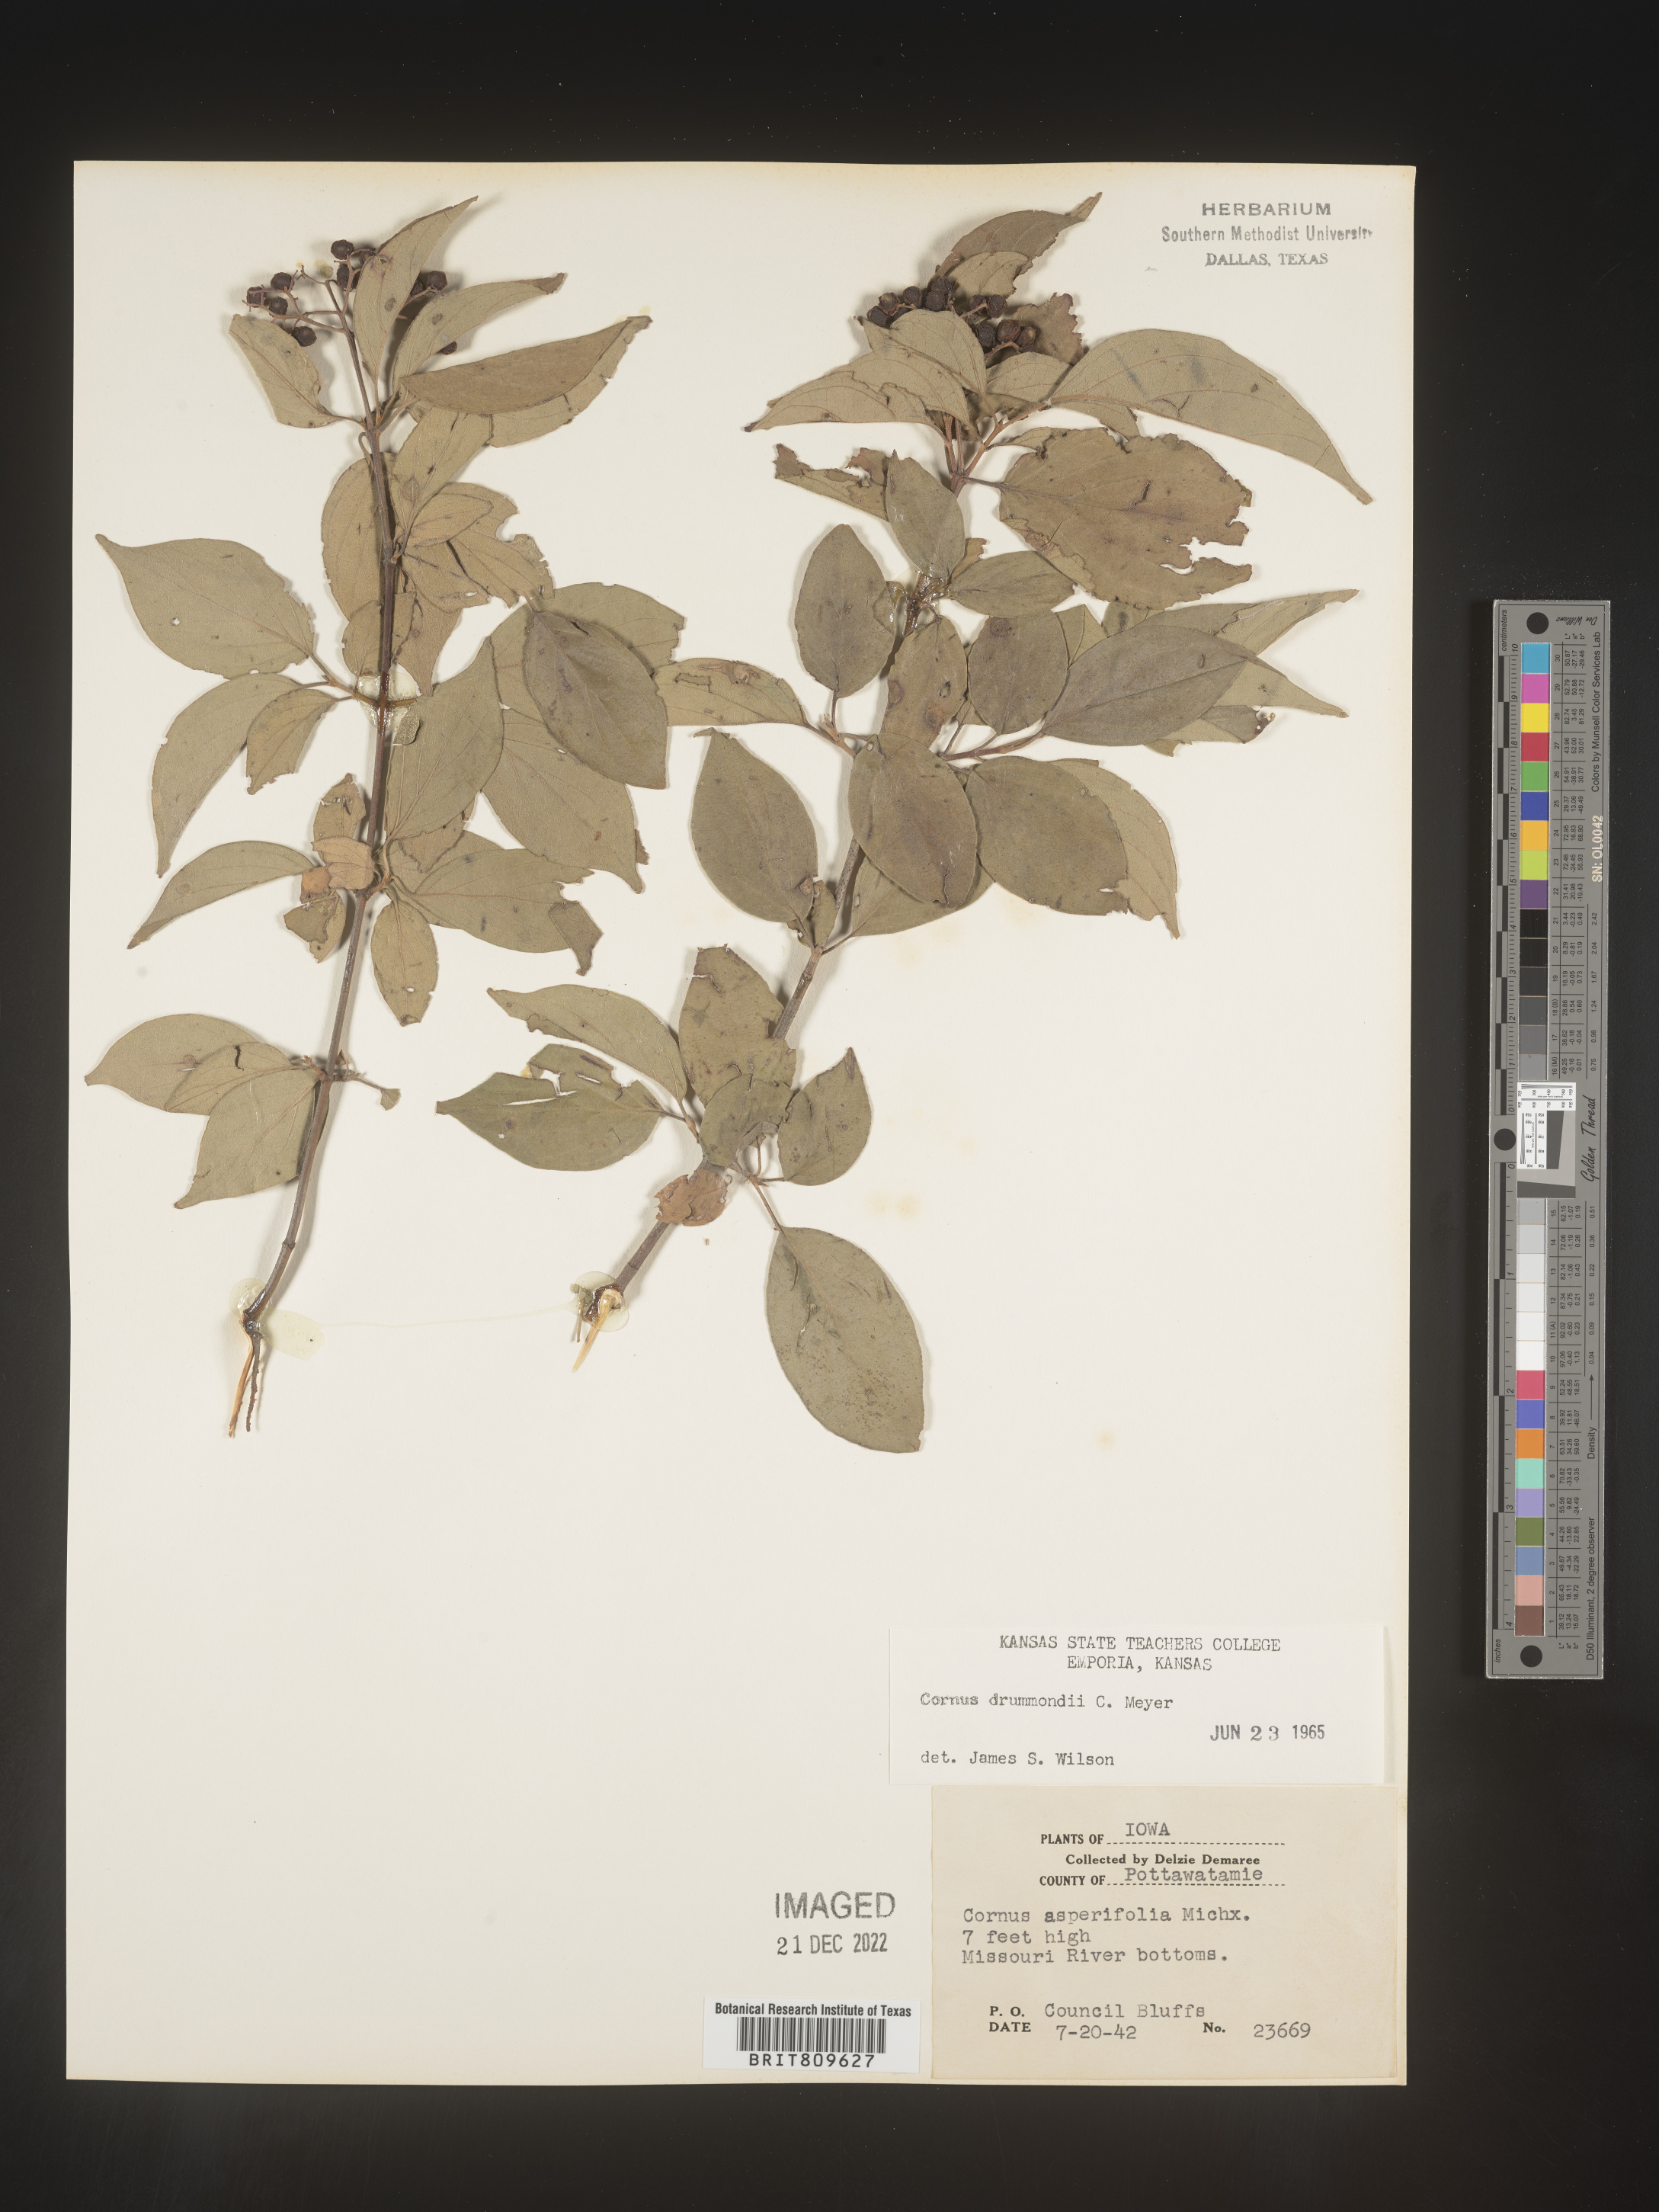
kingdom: Plantae
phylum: Tracheophyta
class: Magnoliopsida
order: Cornales
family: Cornaceae
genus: Cornus
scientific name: Cornus drummondii
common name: Rough-leaf dogwood
